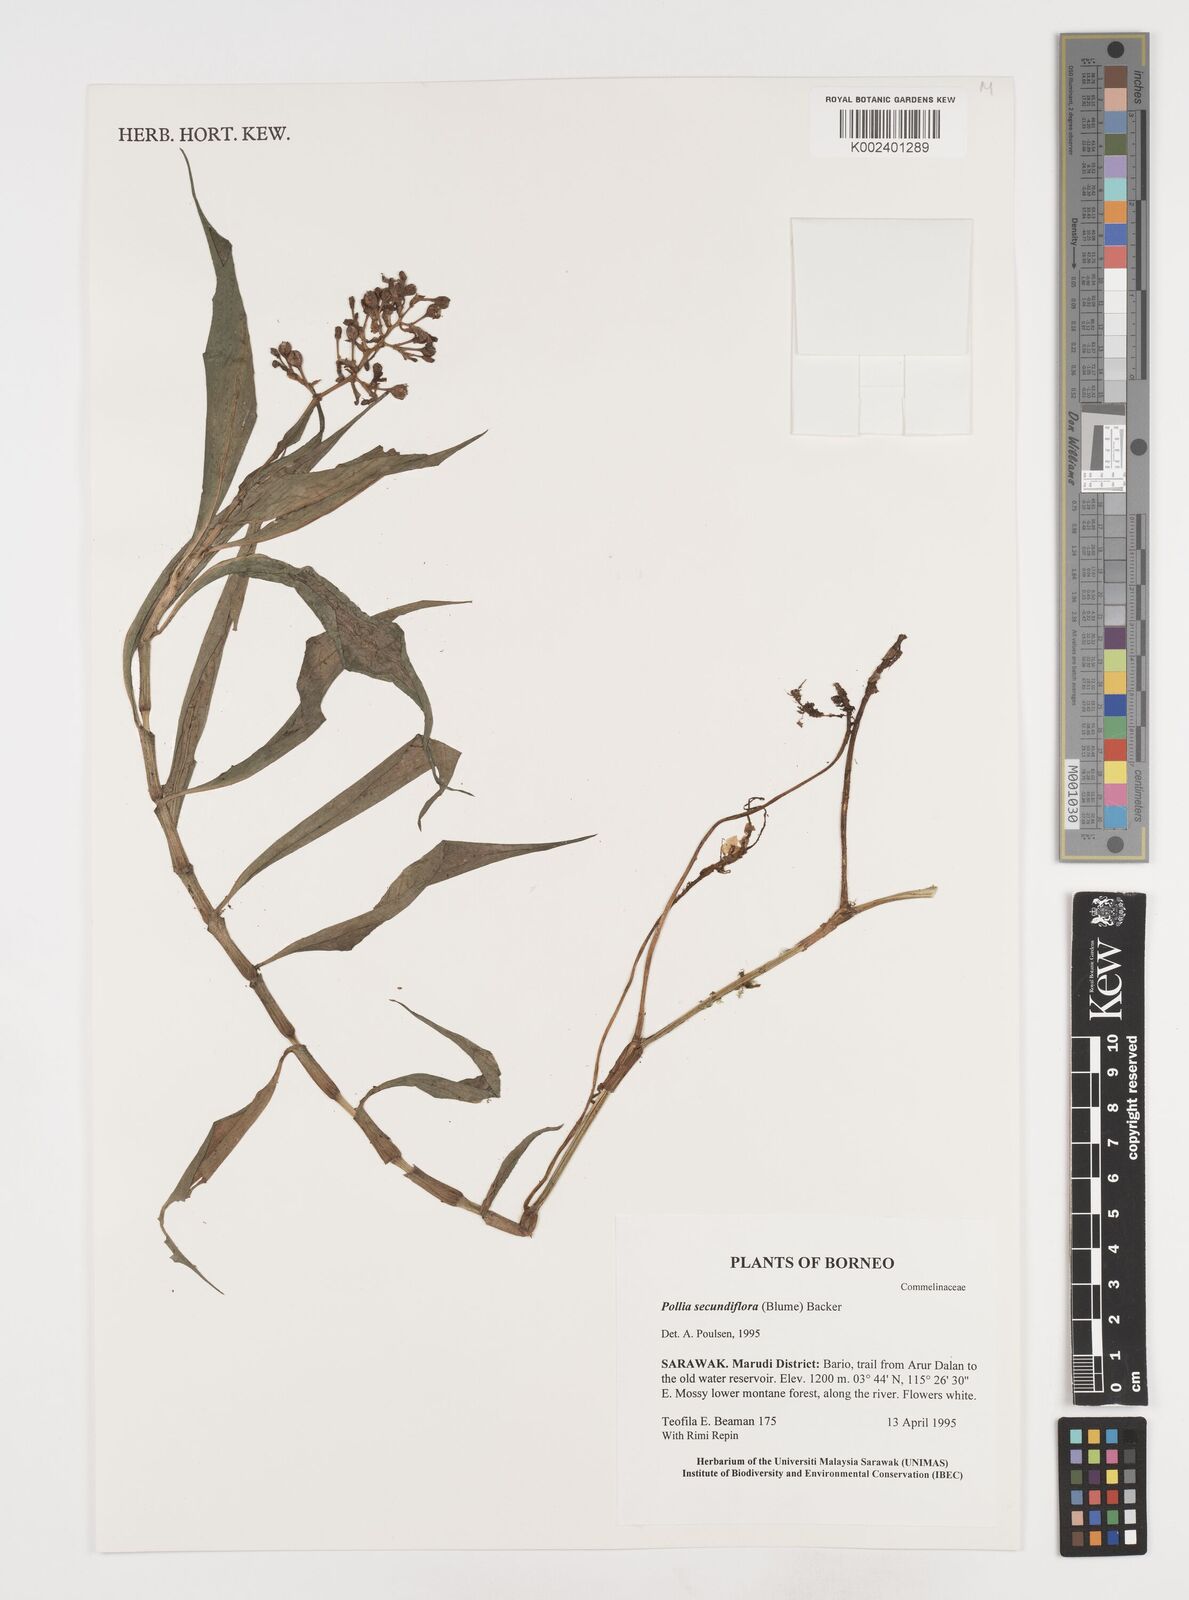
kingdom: Plantae
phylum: Tracheophyta
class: Liliopsida
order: Commelinales
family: Commelinaceae
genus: Pollia
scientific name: Pollia secundiflora
